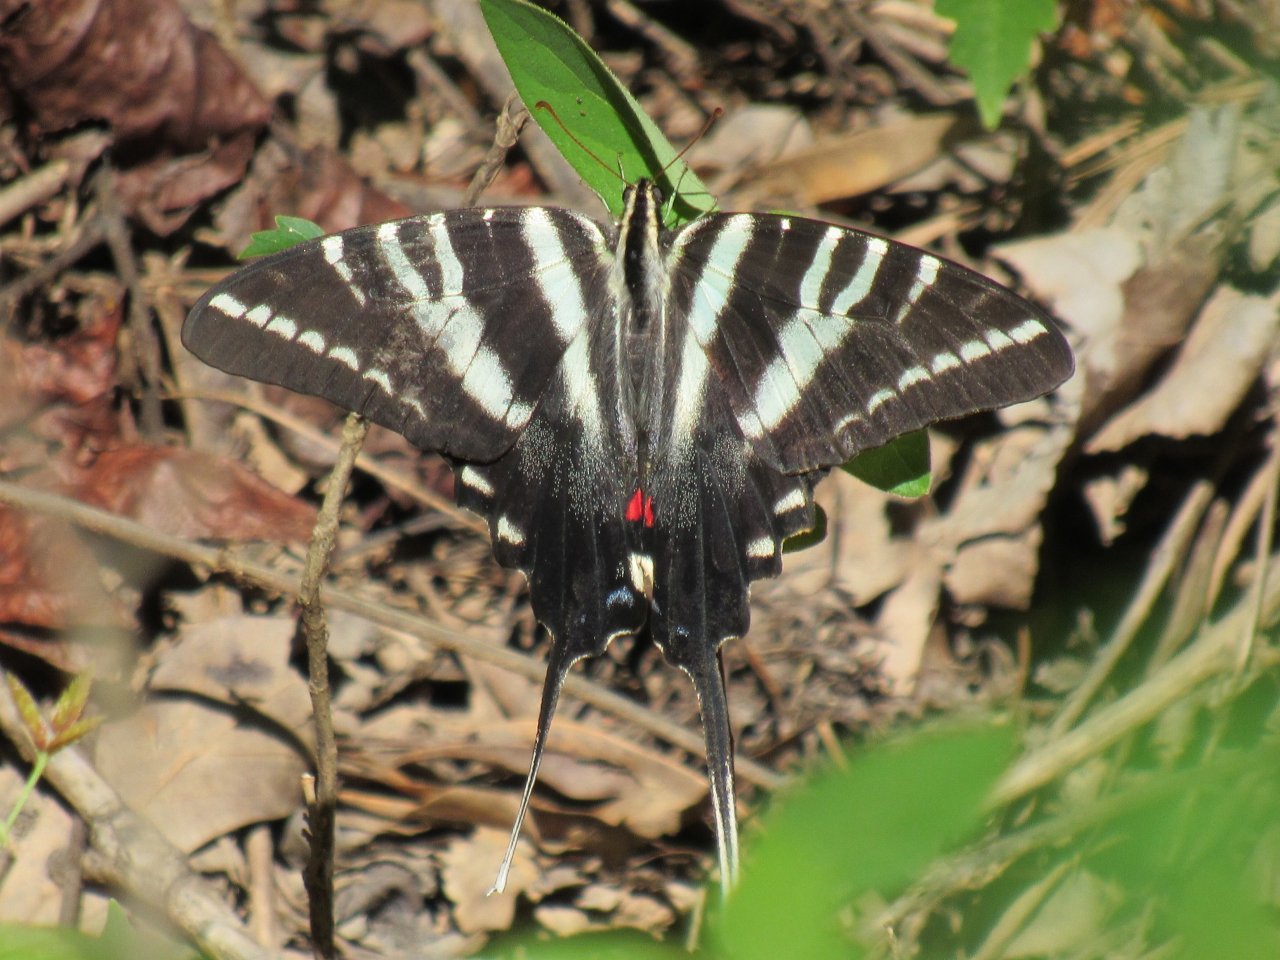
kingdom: Animalia
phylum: Arthropoda
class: Insecta
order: Lepidoptera
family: Papilionidae
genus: Protographium
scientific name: Protographium marcellus
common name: Zebra Swallowtail
